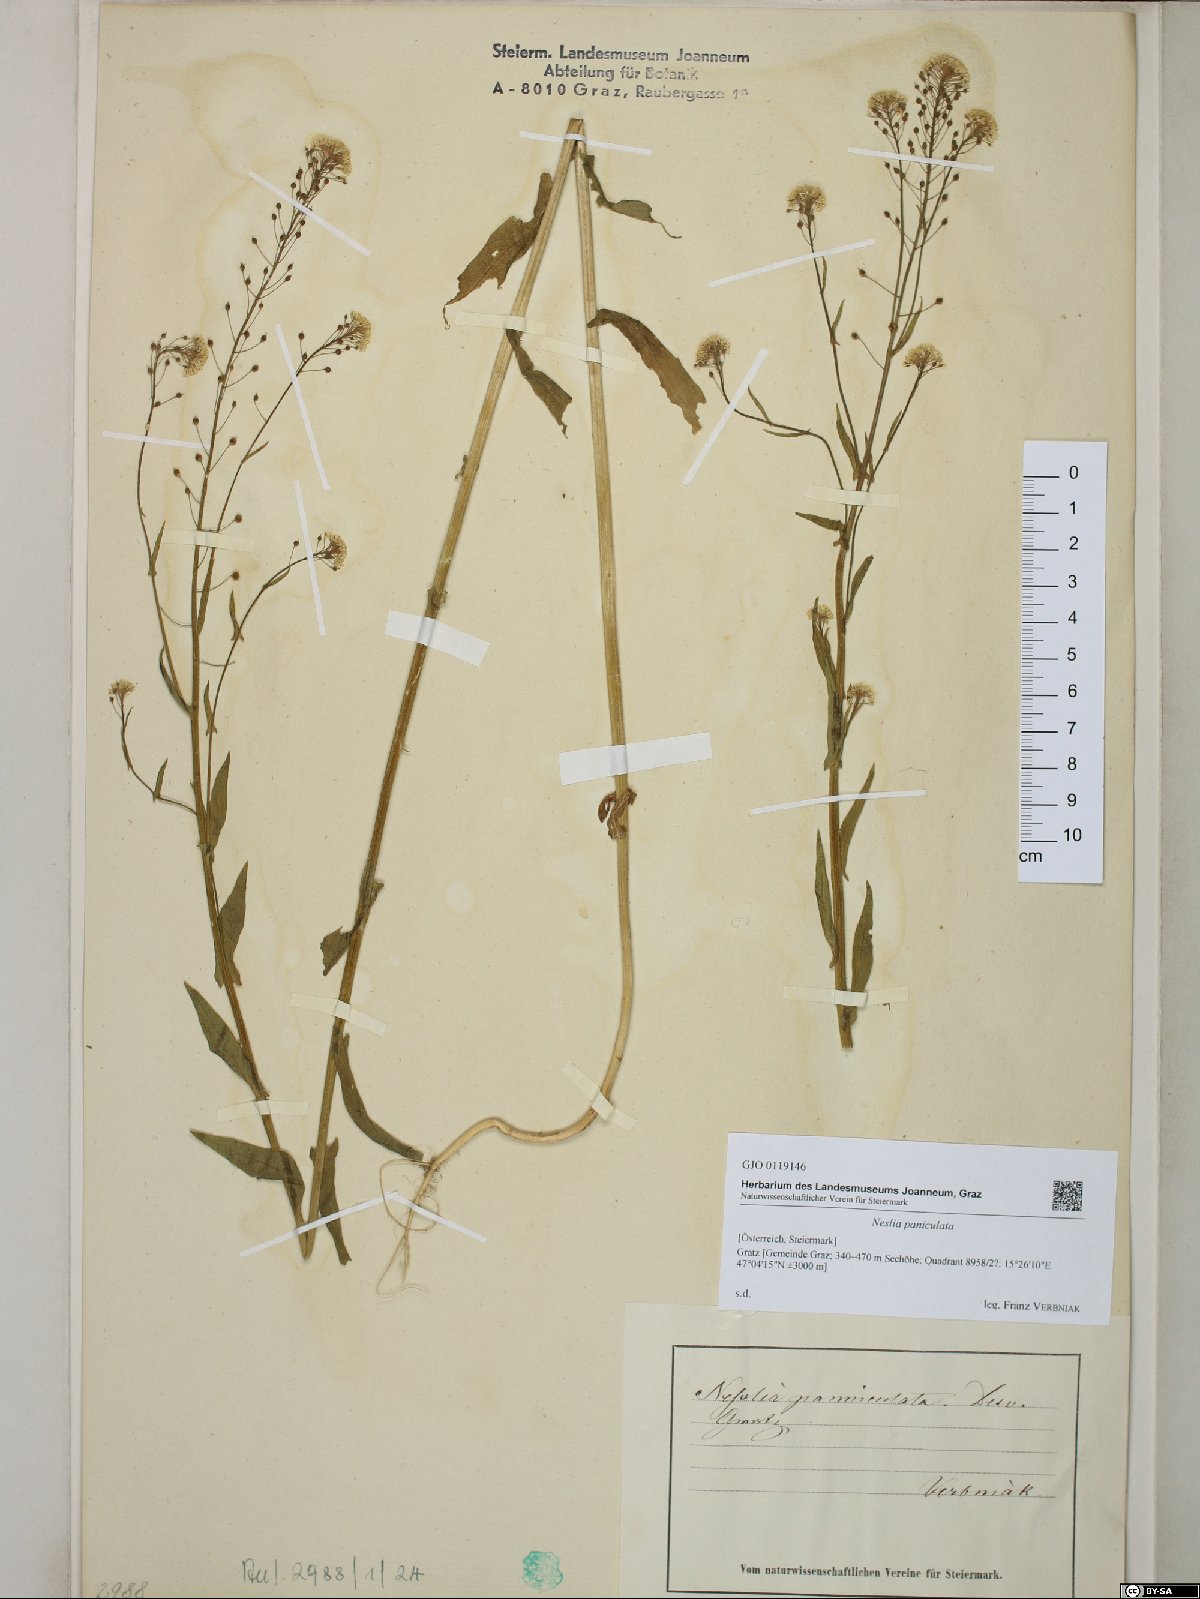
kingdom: Plantae
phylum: Tracheophyta
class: Magnoliopsida
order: Brassicales
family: Brassicaceae
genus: Neslia
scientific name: Neslia paniculata
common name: Ball mustard
